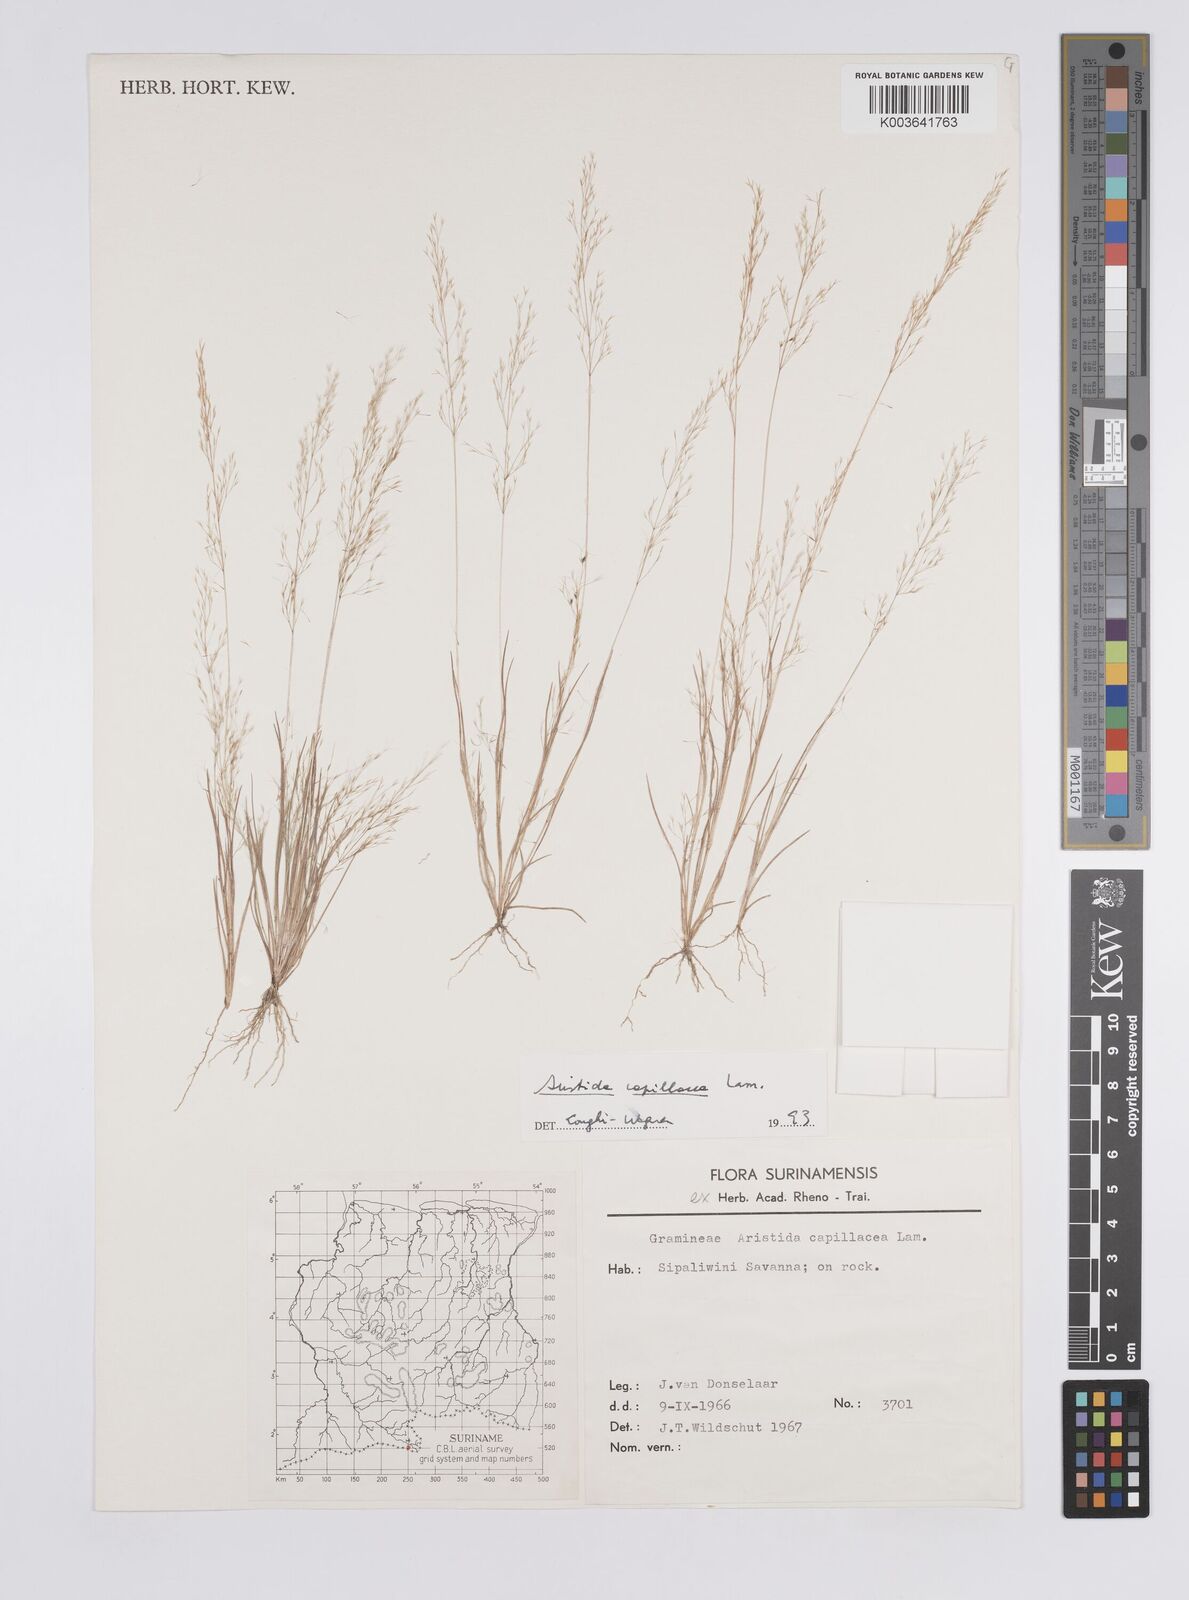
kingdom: Plantae
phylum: Tracheophyta
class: Liliopsida
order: Poales
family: Poaceae
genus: Aristida
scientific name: Aristida capillacea
